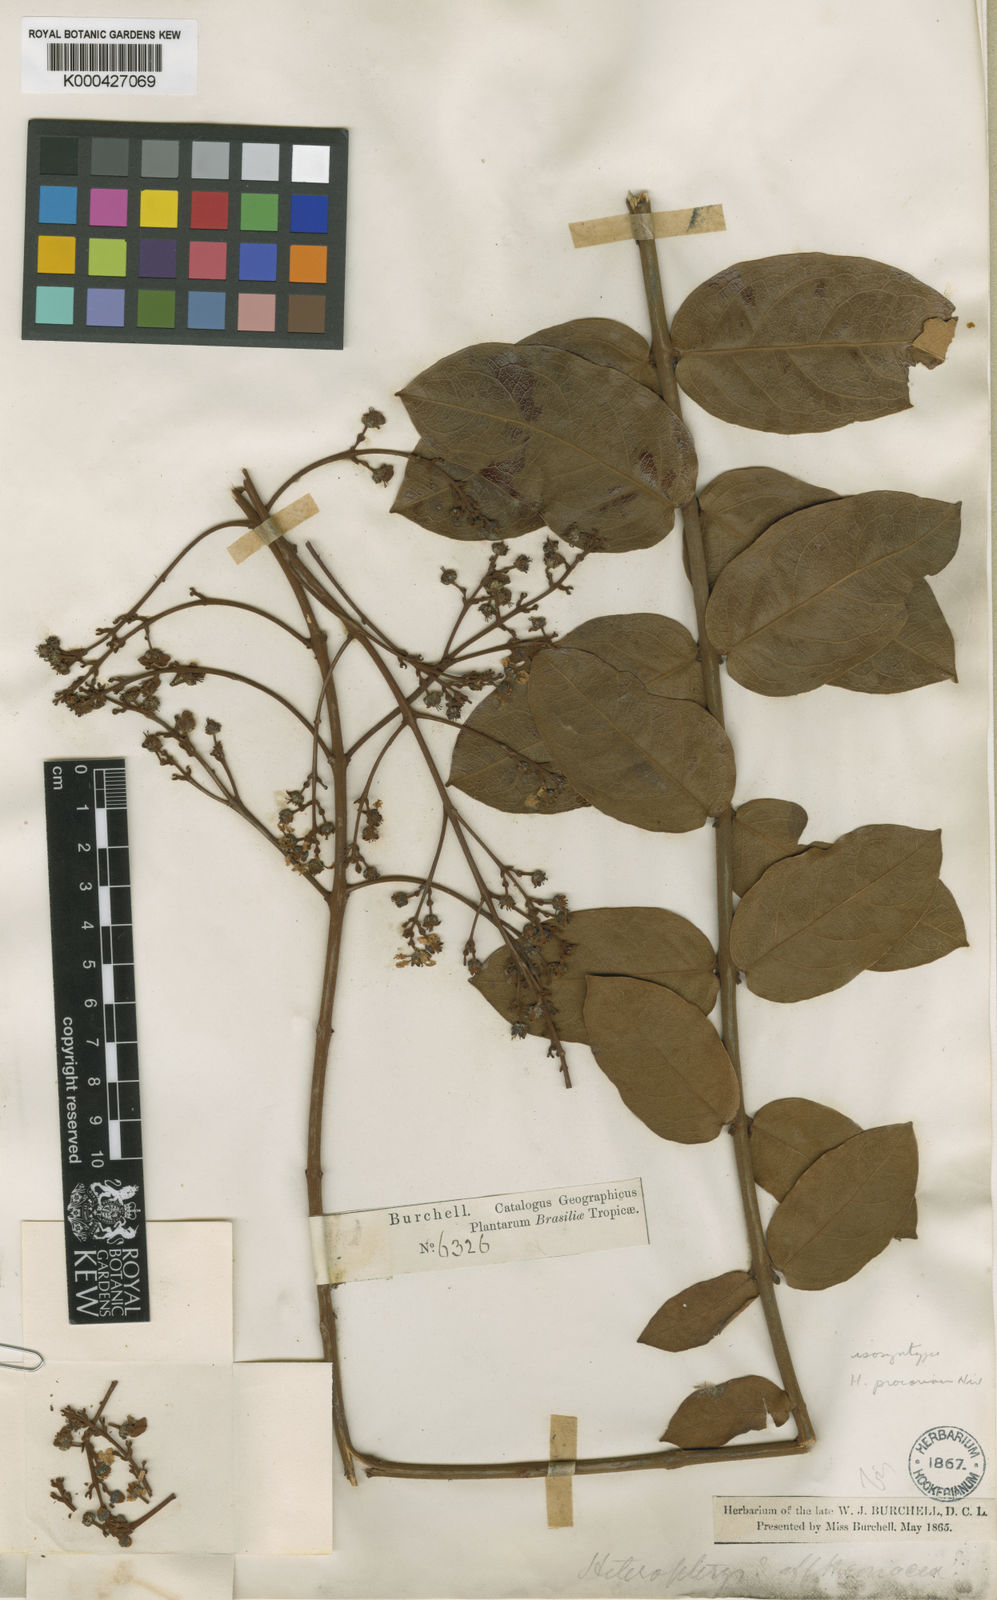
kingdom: Plantae
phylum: Tracheophyta
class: Magnoliopsida
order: Malpighiales
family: Malpighiaceae
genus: Heteropterys
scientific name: Heteropterys procoriacea
